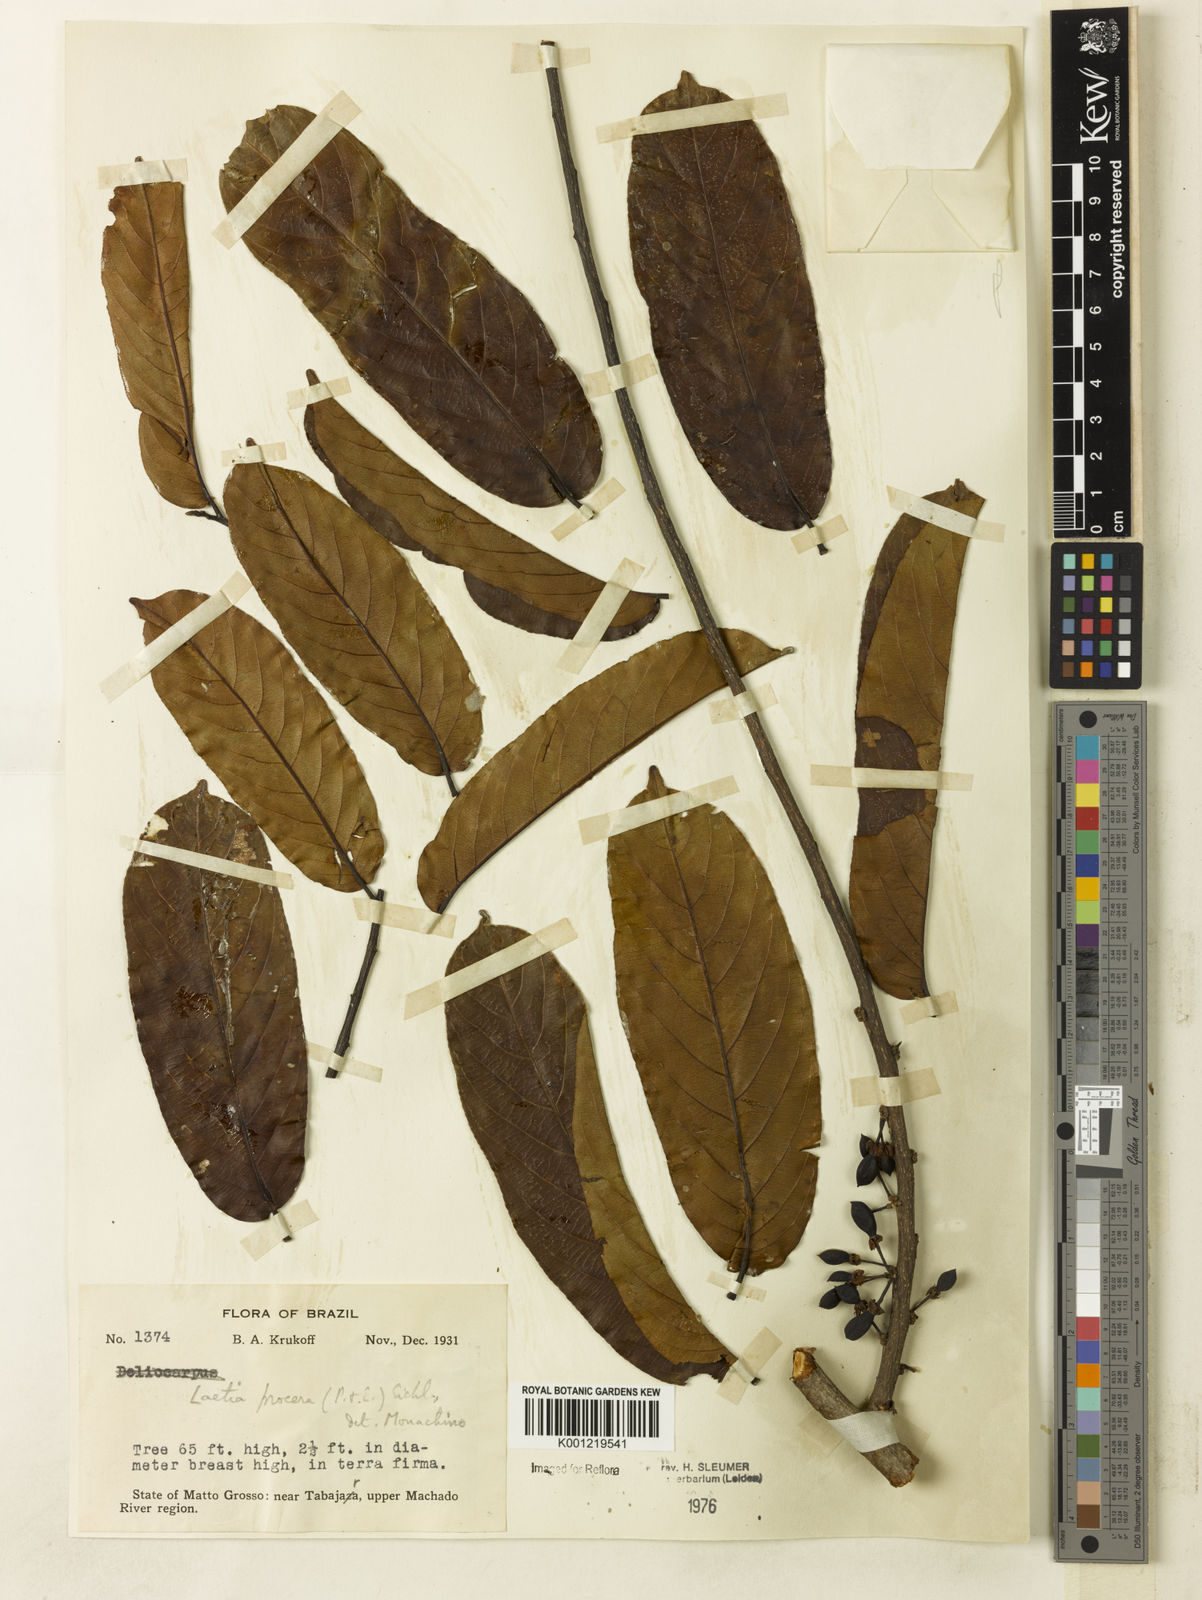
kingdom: Plantae
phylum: Tracheophyta
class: Magnoliopsida
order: Malpighiales
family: Salicaceae
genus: Casearia
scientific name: Casearia bicolor
